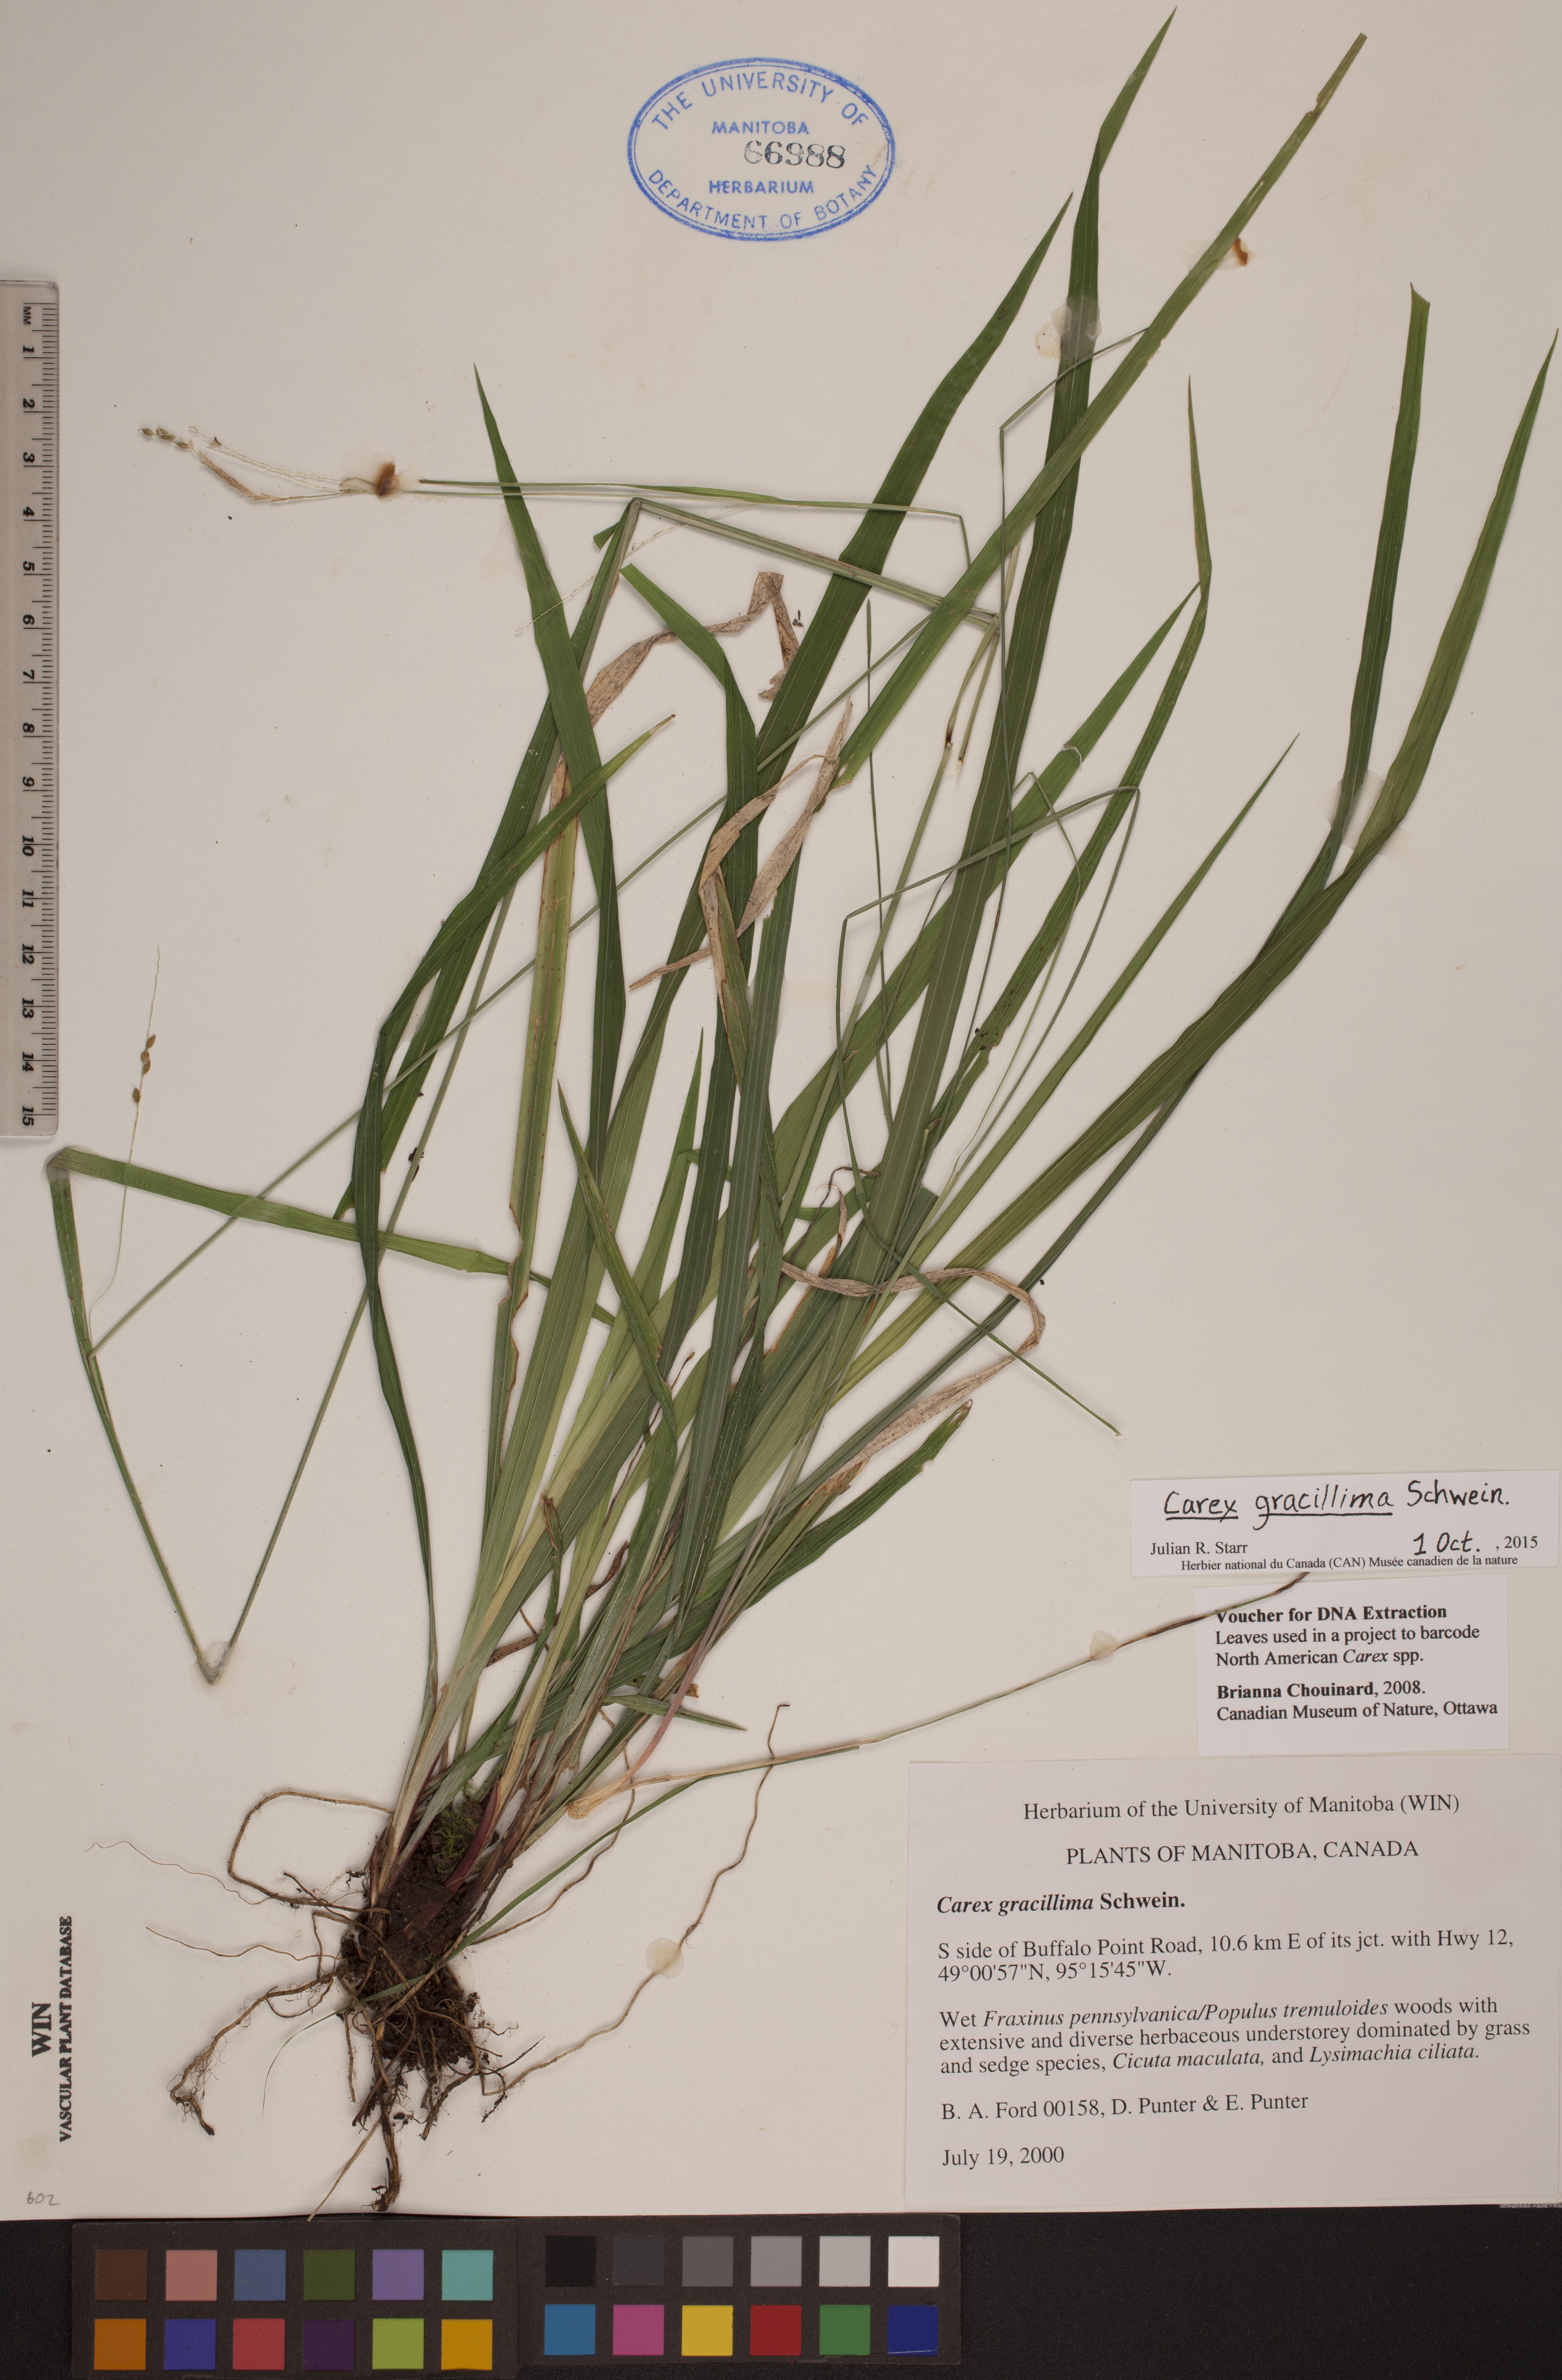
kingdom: Plantae
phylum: Tracheophyta
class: Liliopsida
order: Poales
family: Cyperaceae
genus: Carex
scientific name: Carex gracillima
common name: Graceful sedge
